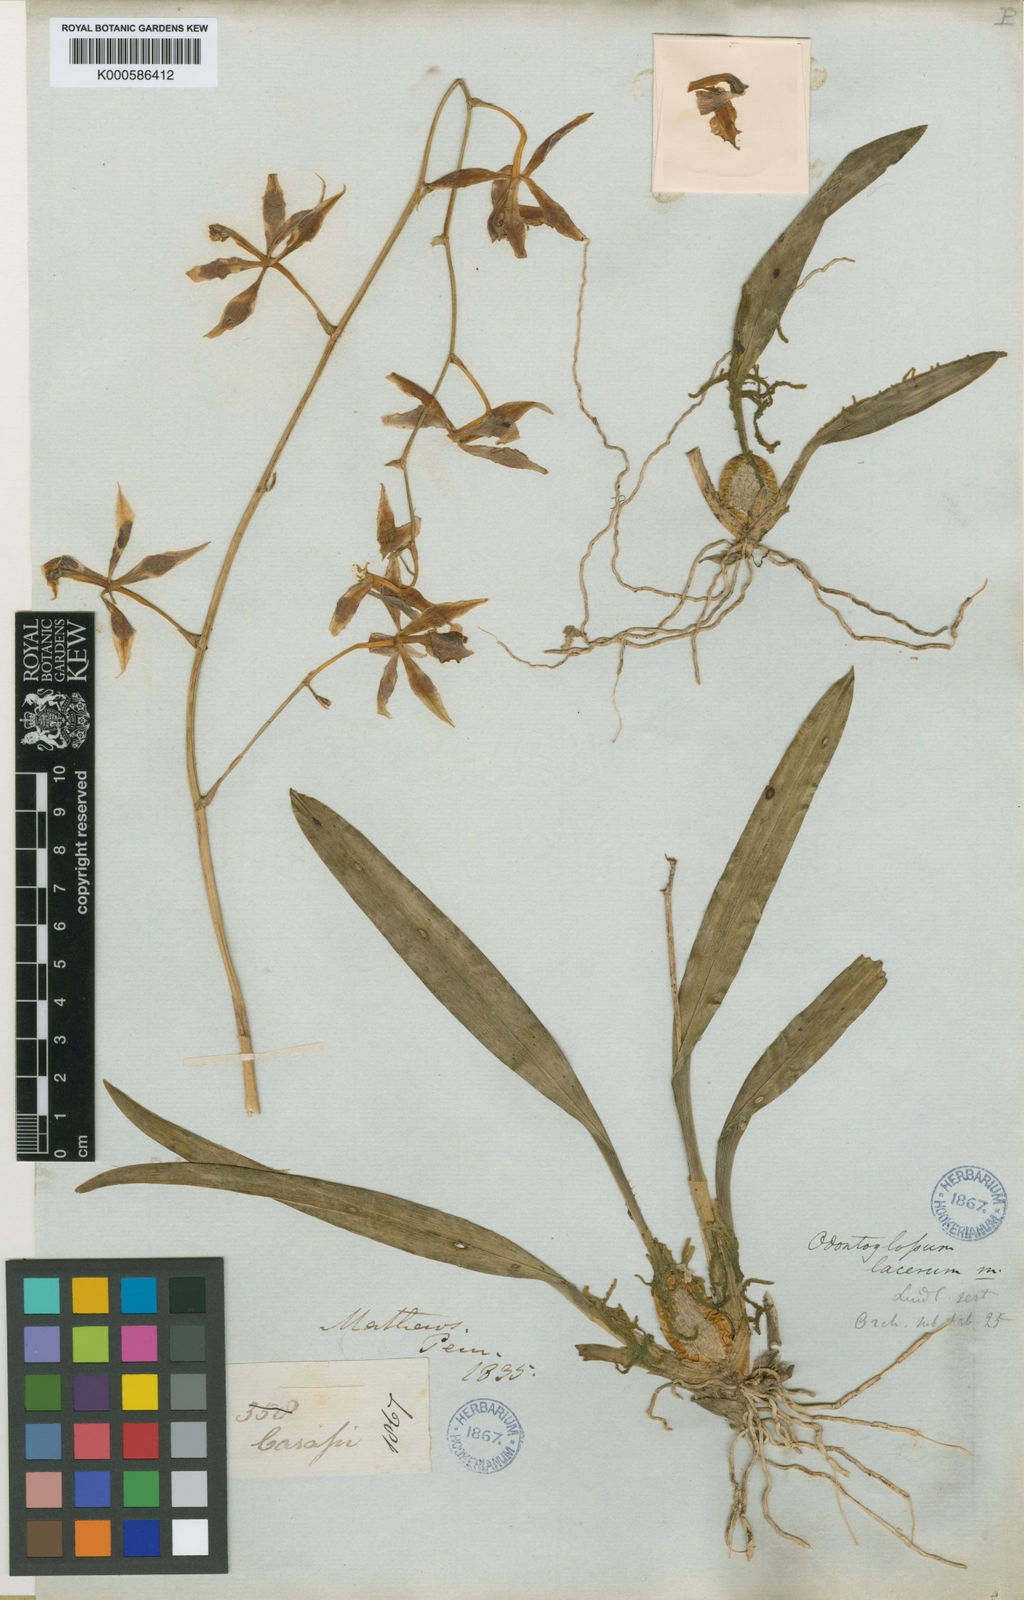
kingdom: Plantae
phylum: Tracheophyta
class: Liliopsida
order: Asparagales
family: Orchidaceae
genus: Oncidium
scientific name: Oncidium epidendroides
